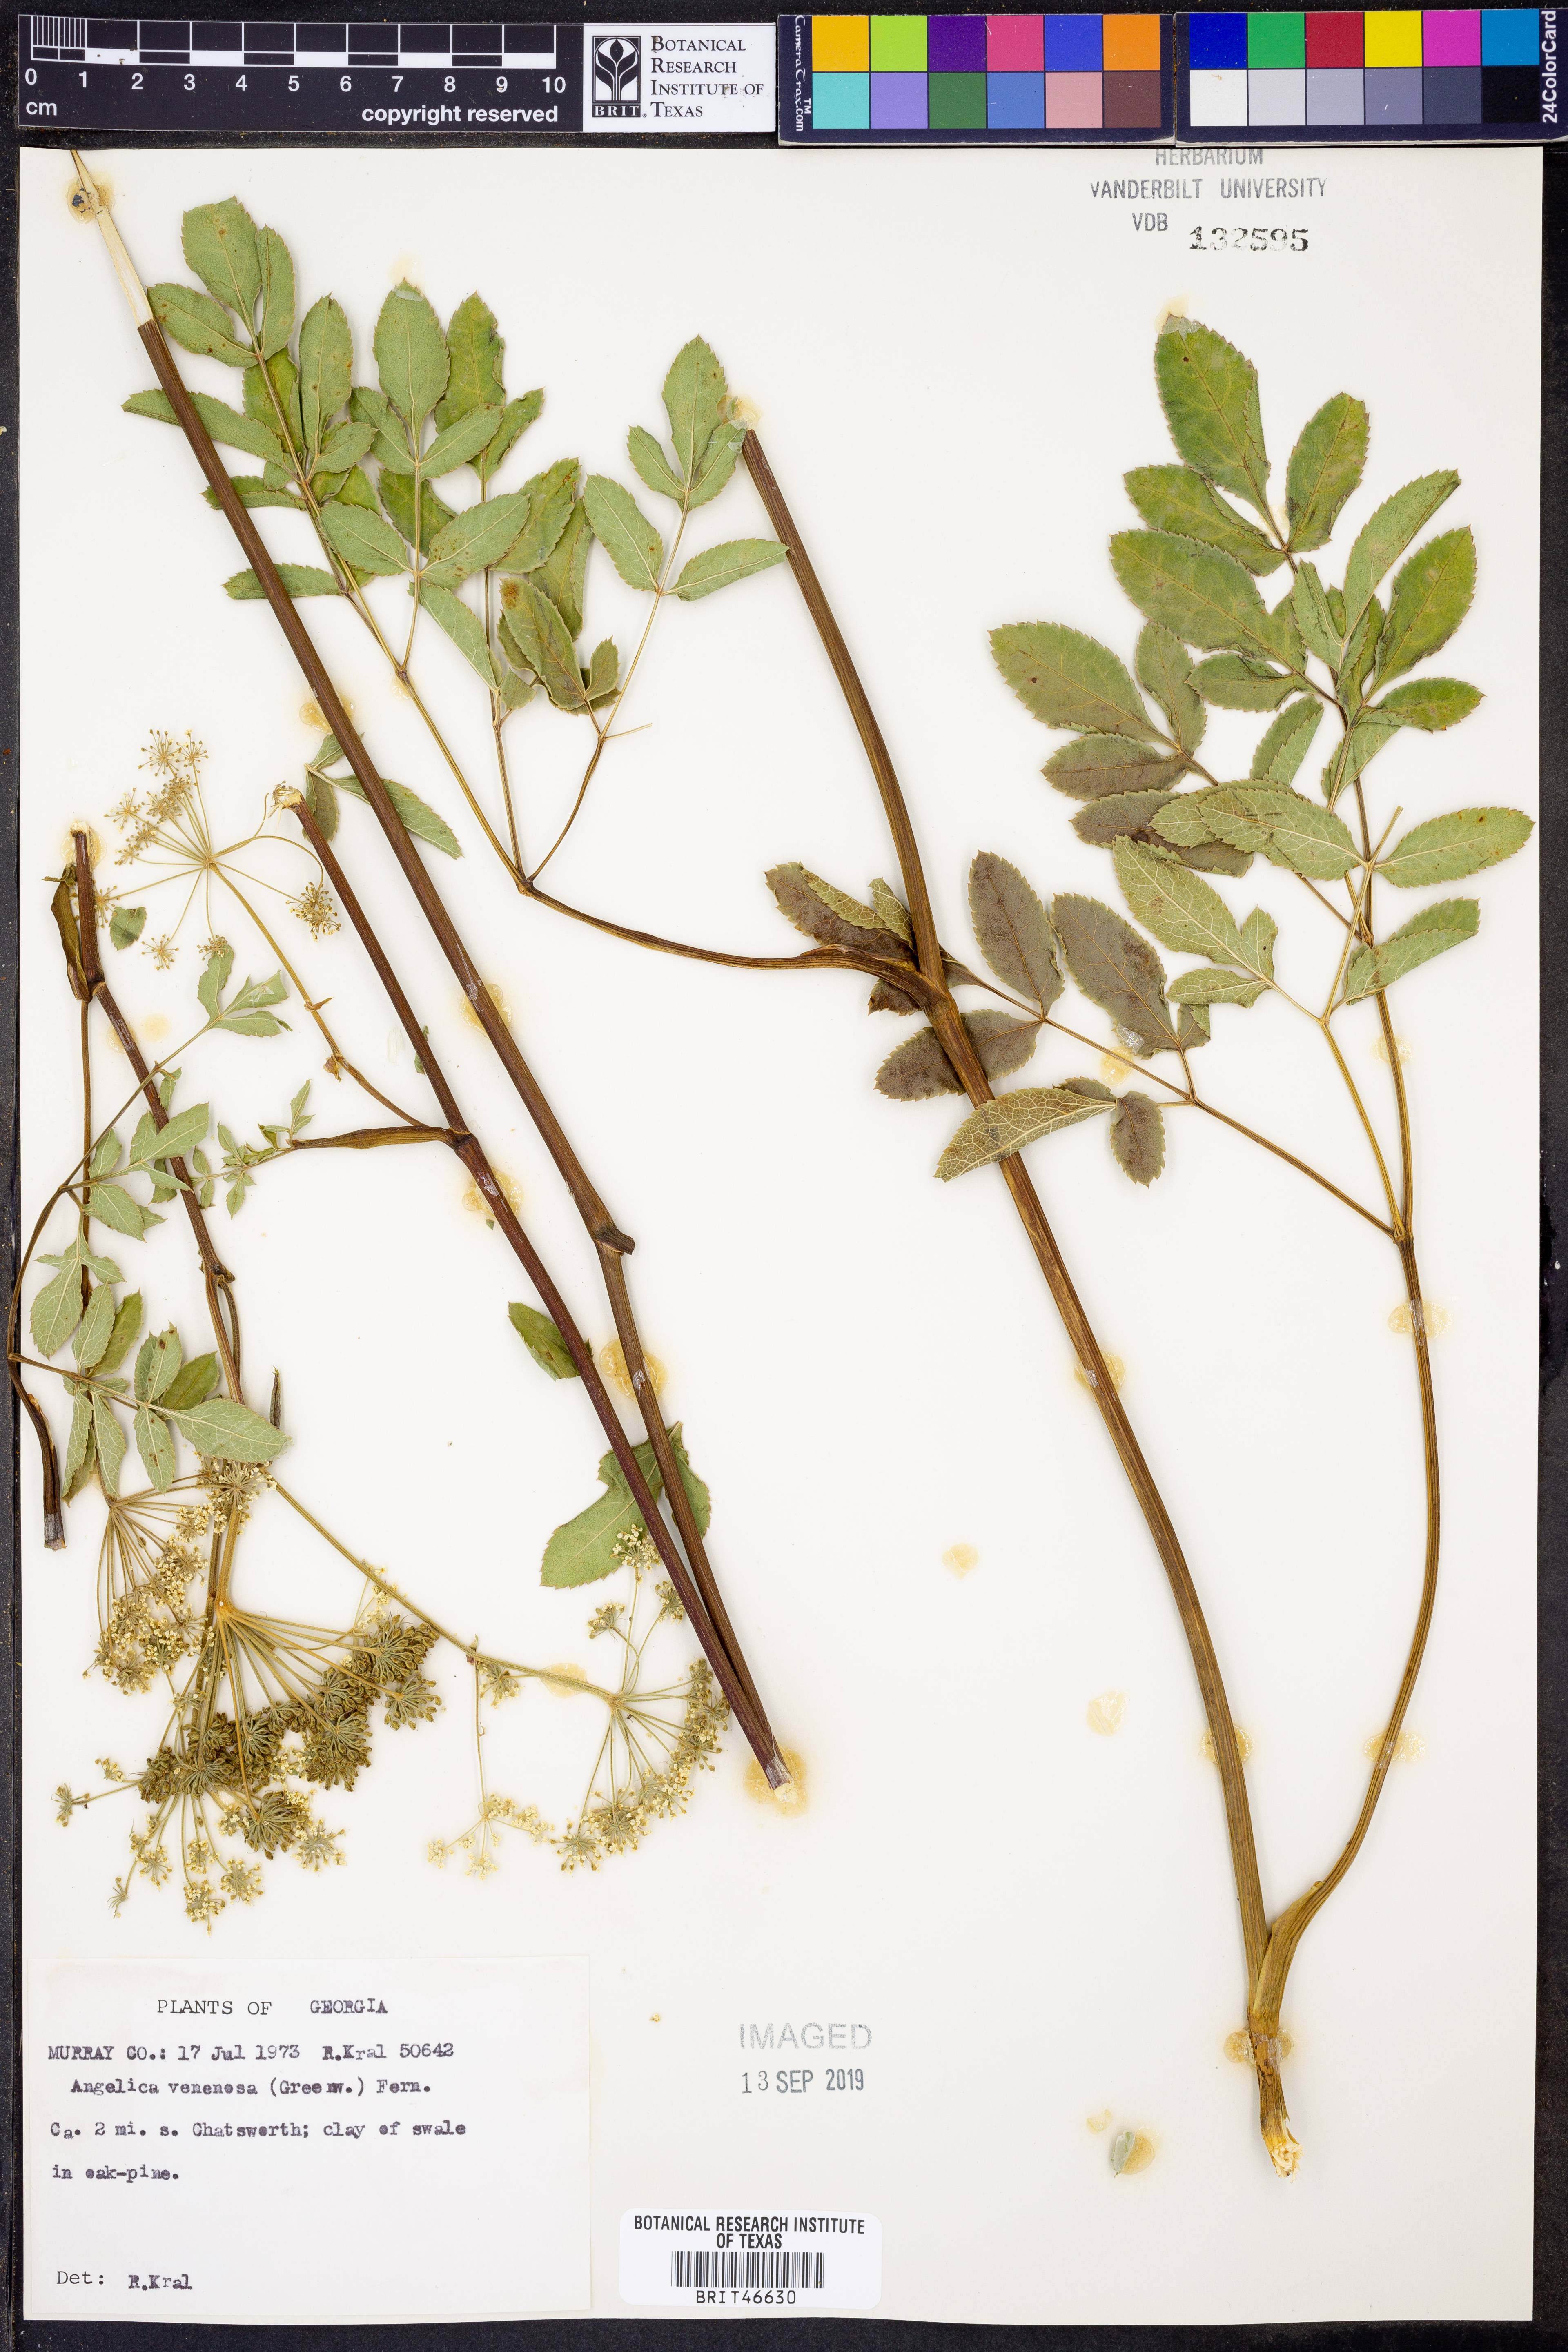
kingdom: Plantae
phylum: Tracheophyta
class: Magnoliopsida
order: Apiales
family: Apiaceae
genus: Angelica
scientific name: Angelica venenosa
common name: Hairy angelica
